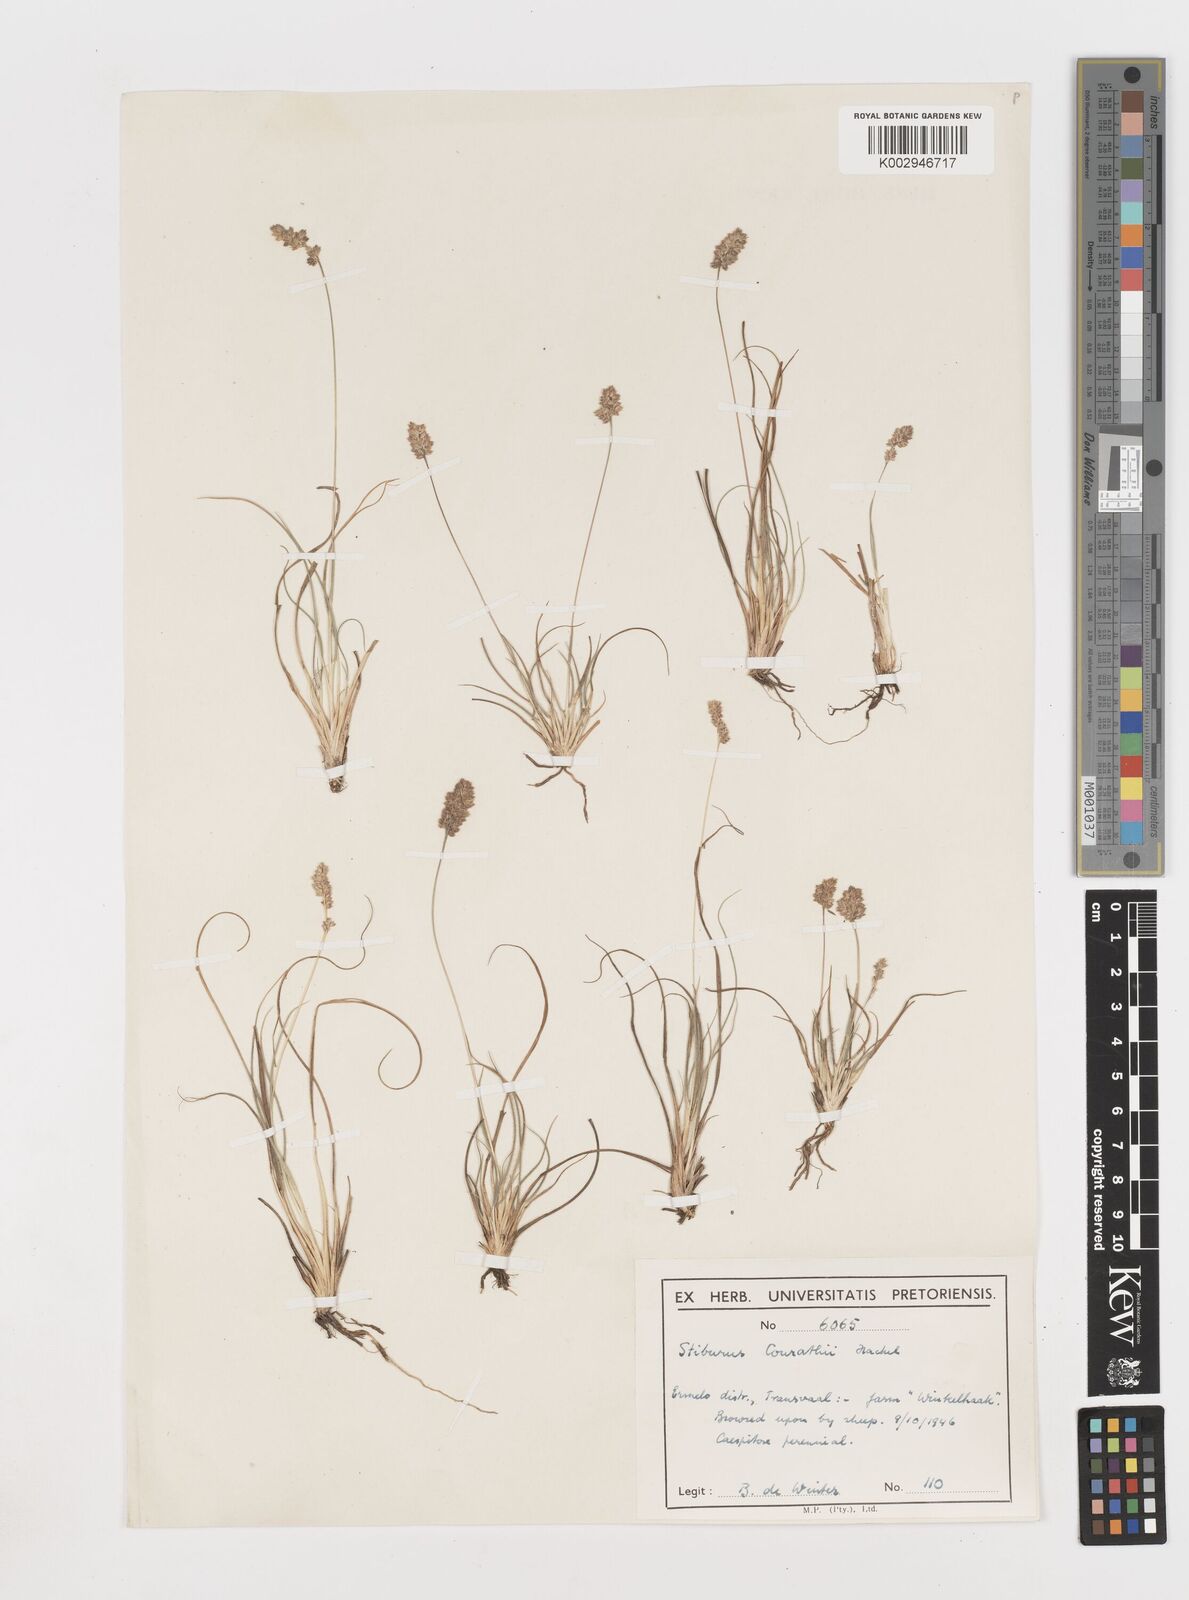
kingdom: Plantae
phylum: Tracheophyta
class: Liliopsida
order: Poales
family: Poaceae
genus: Stiburus
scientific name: Stiburus conrathii
